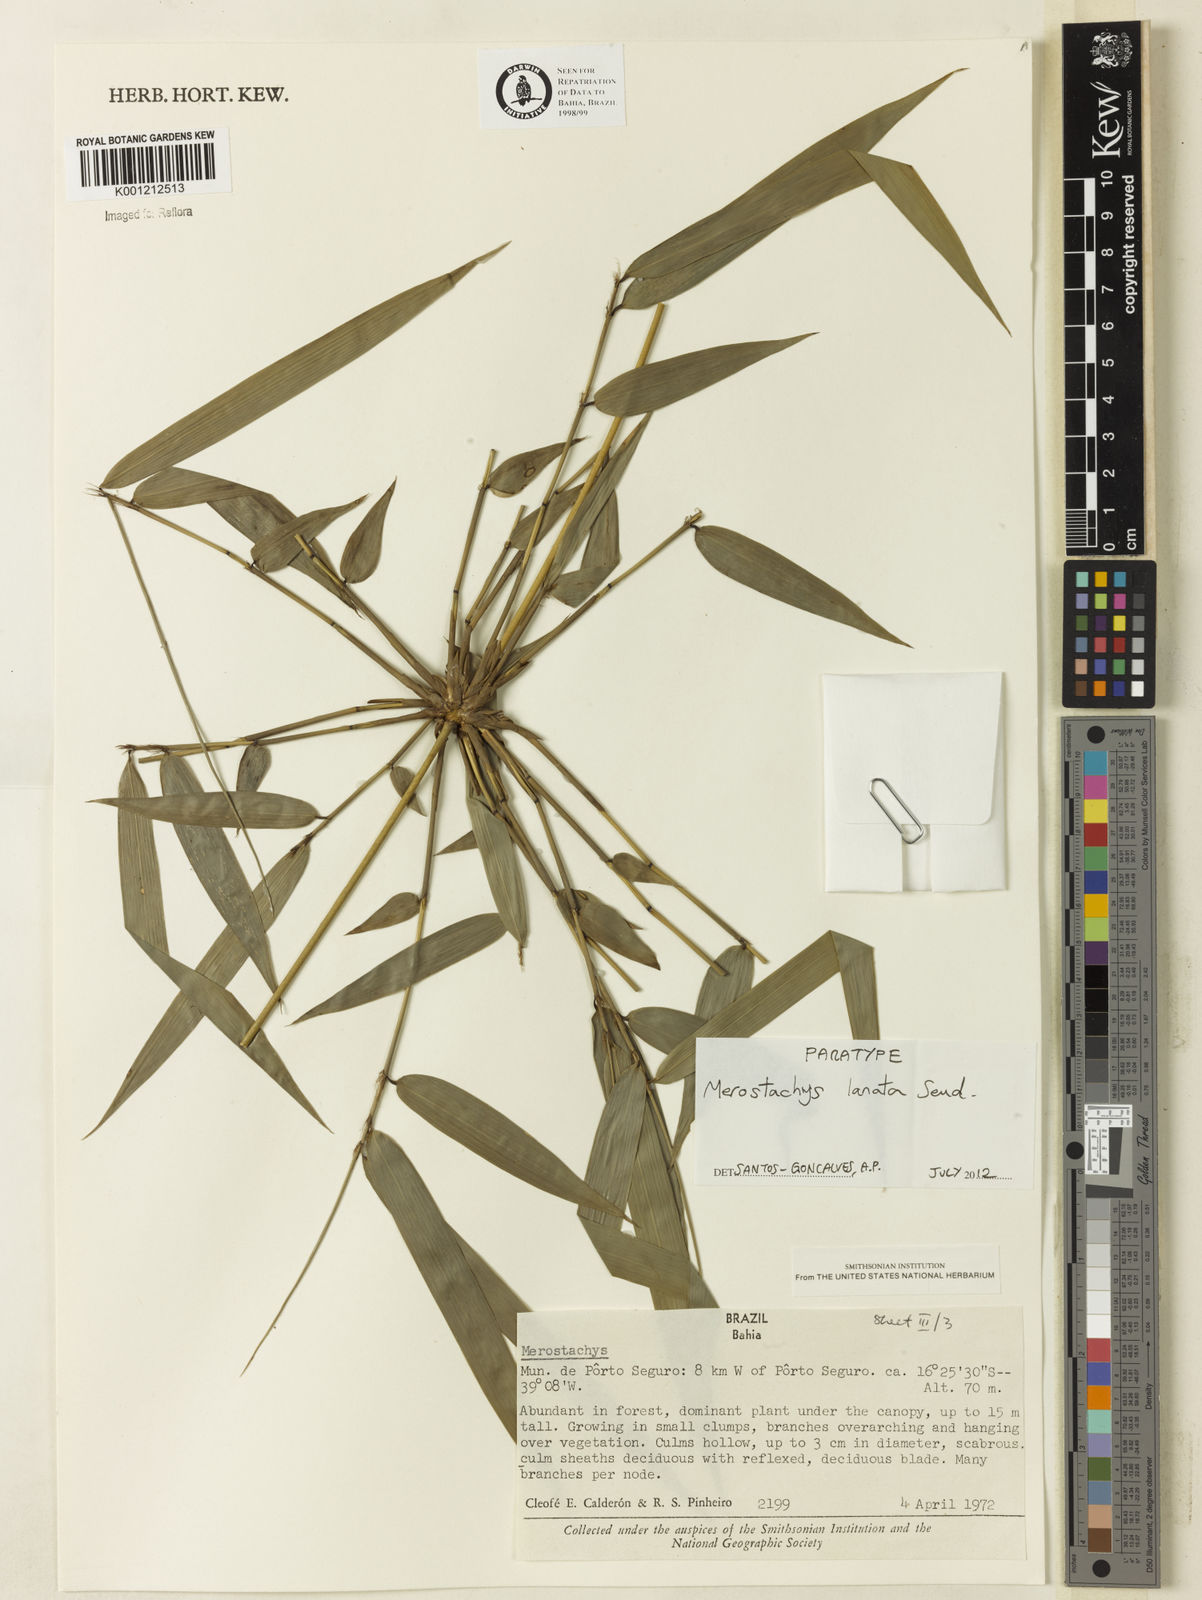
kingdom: Plantae
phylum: Tracheophyta
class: Liliopsida
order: Poales
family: Poaceae
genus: Merostachys
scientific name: Merostachys lanata
